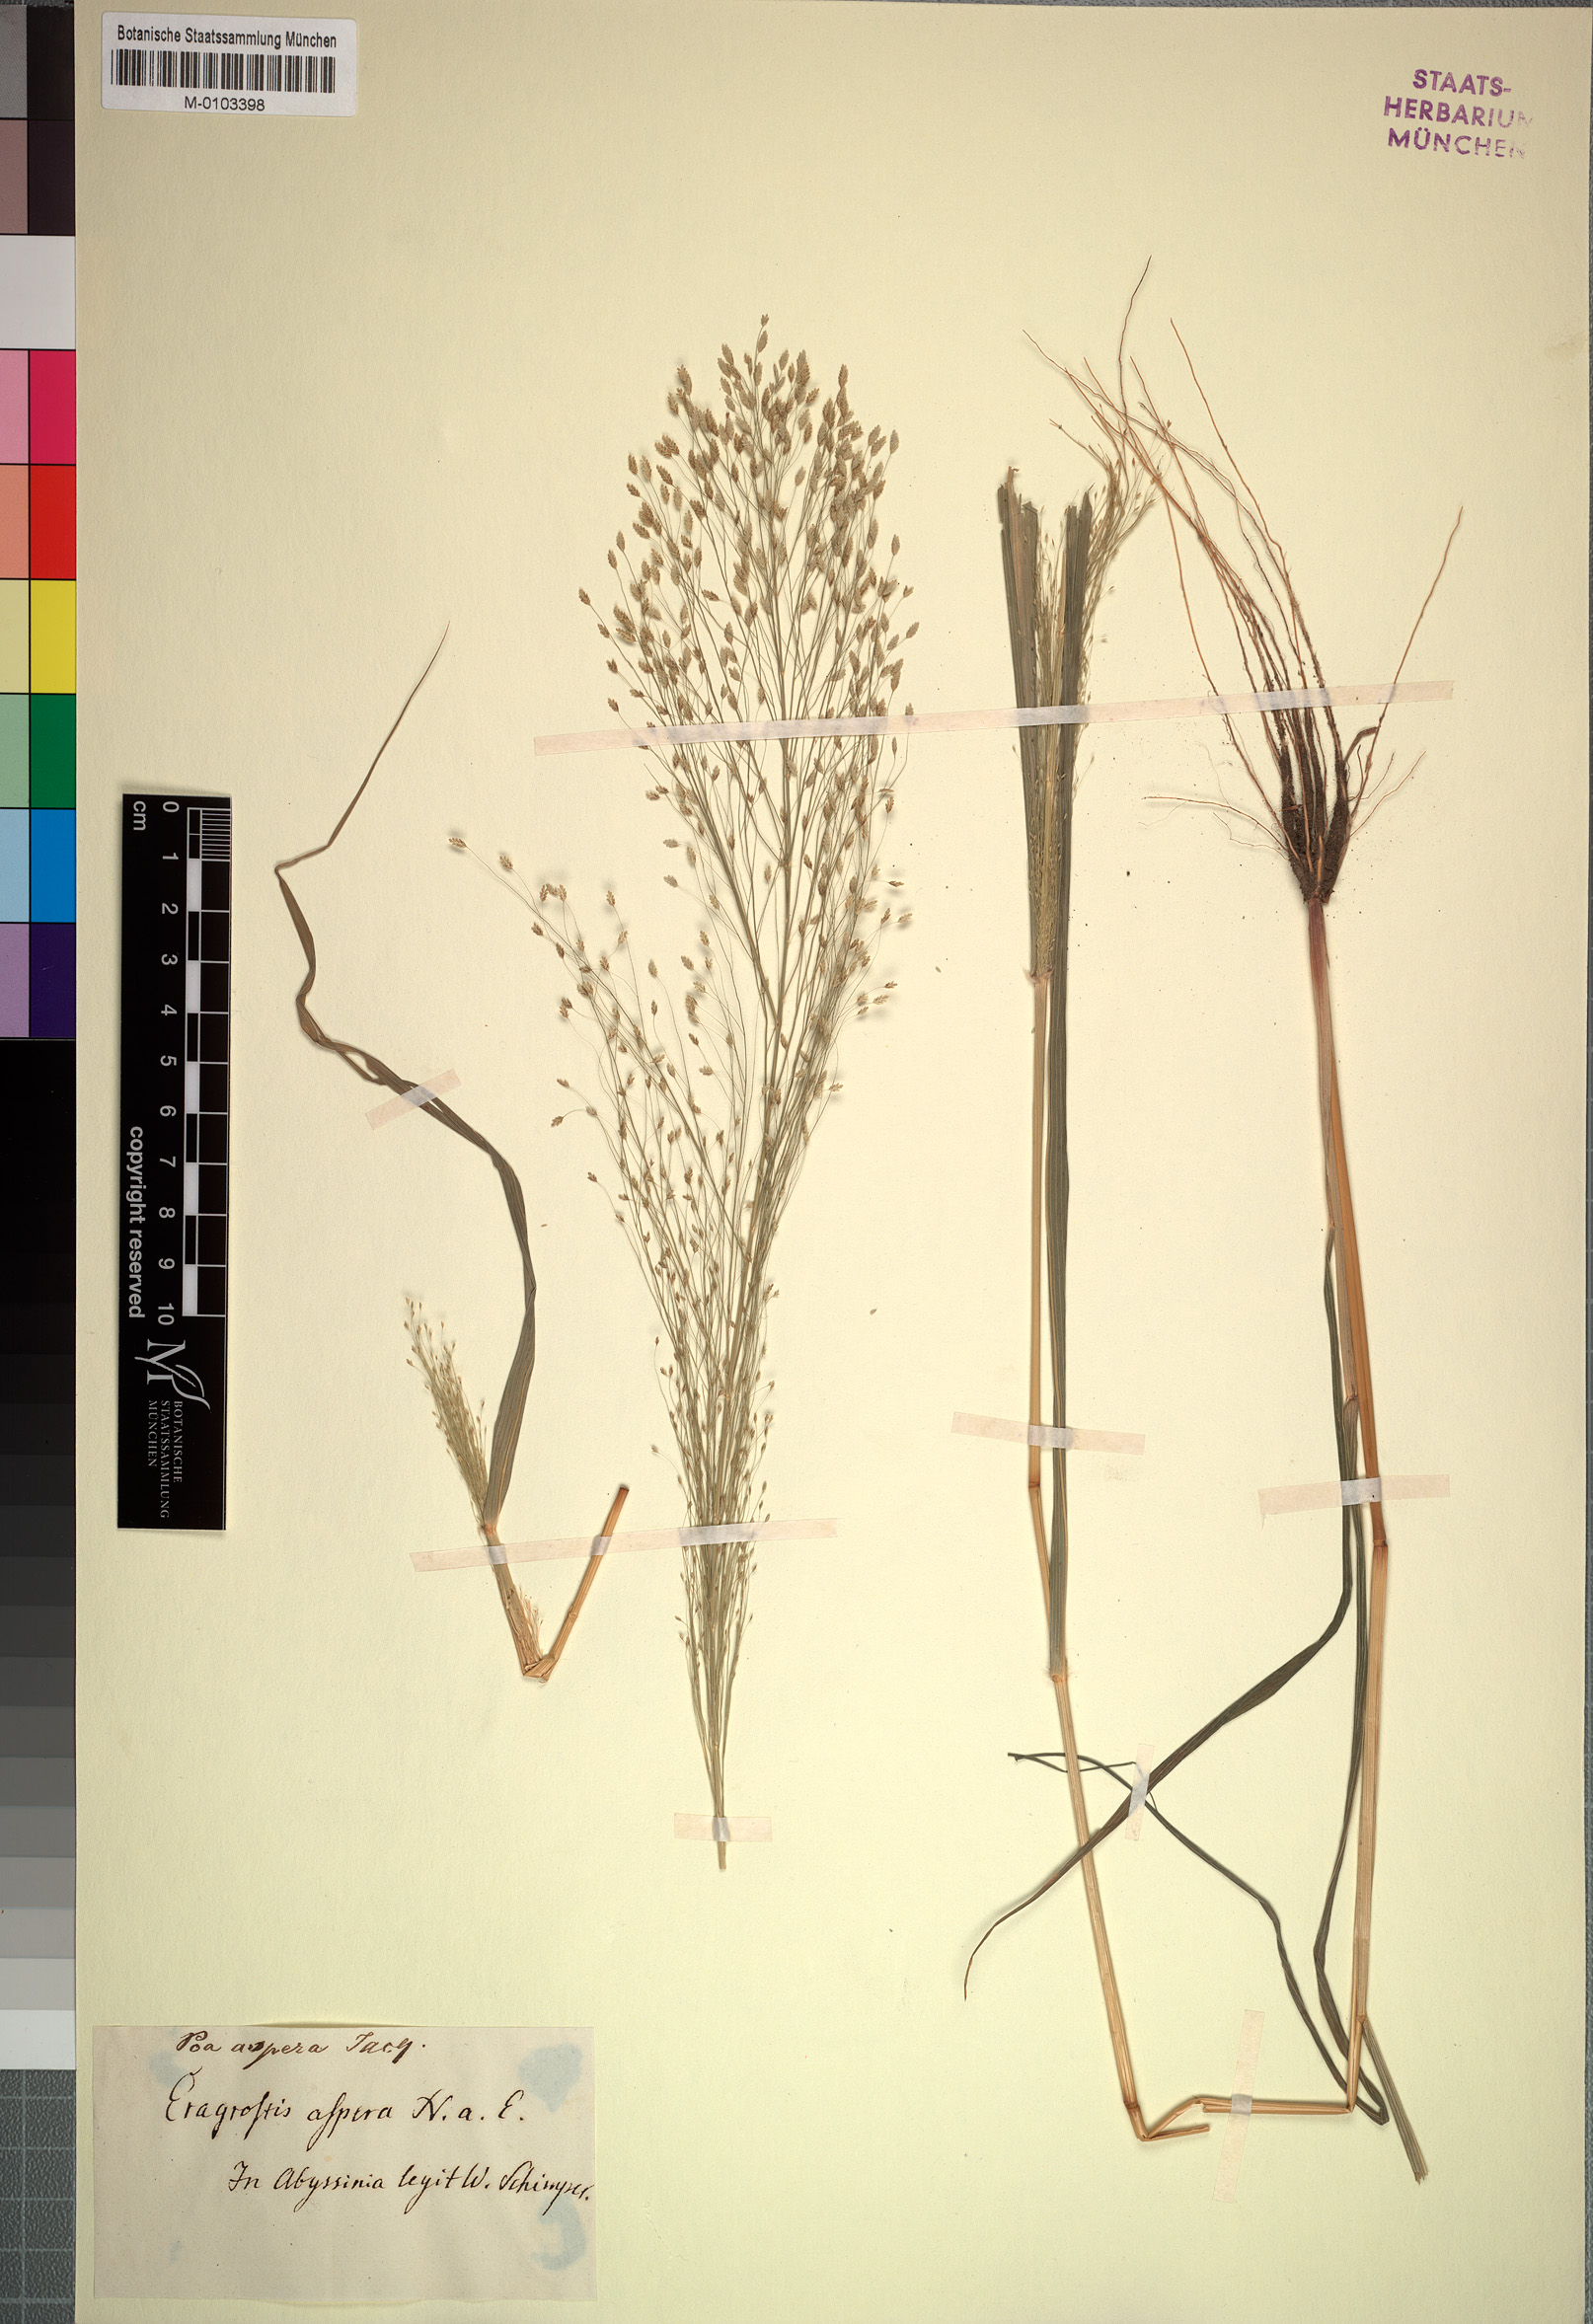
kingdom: Plantae
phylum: Tracheophyta
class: Liliopsida
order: Poales
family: Poaceae
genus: Eragrostis
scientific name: Eragrostis aspera
